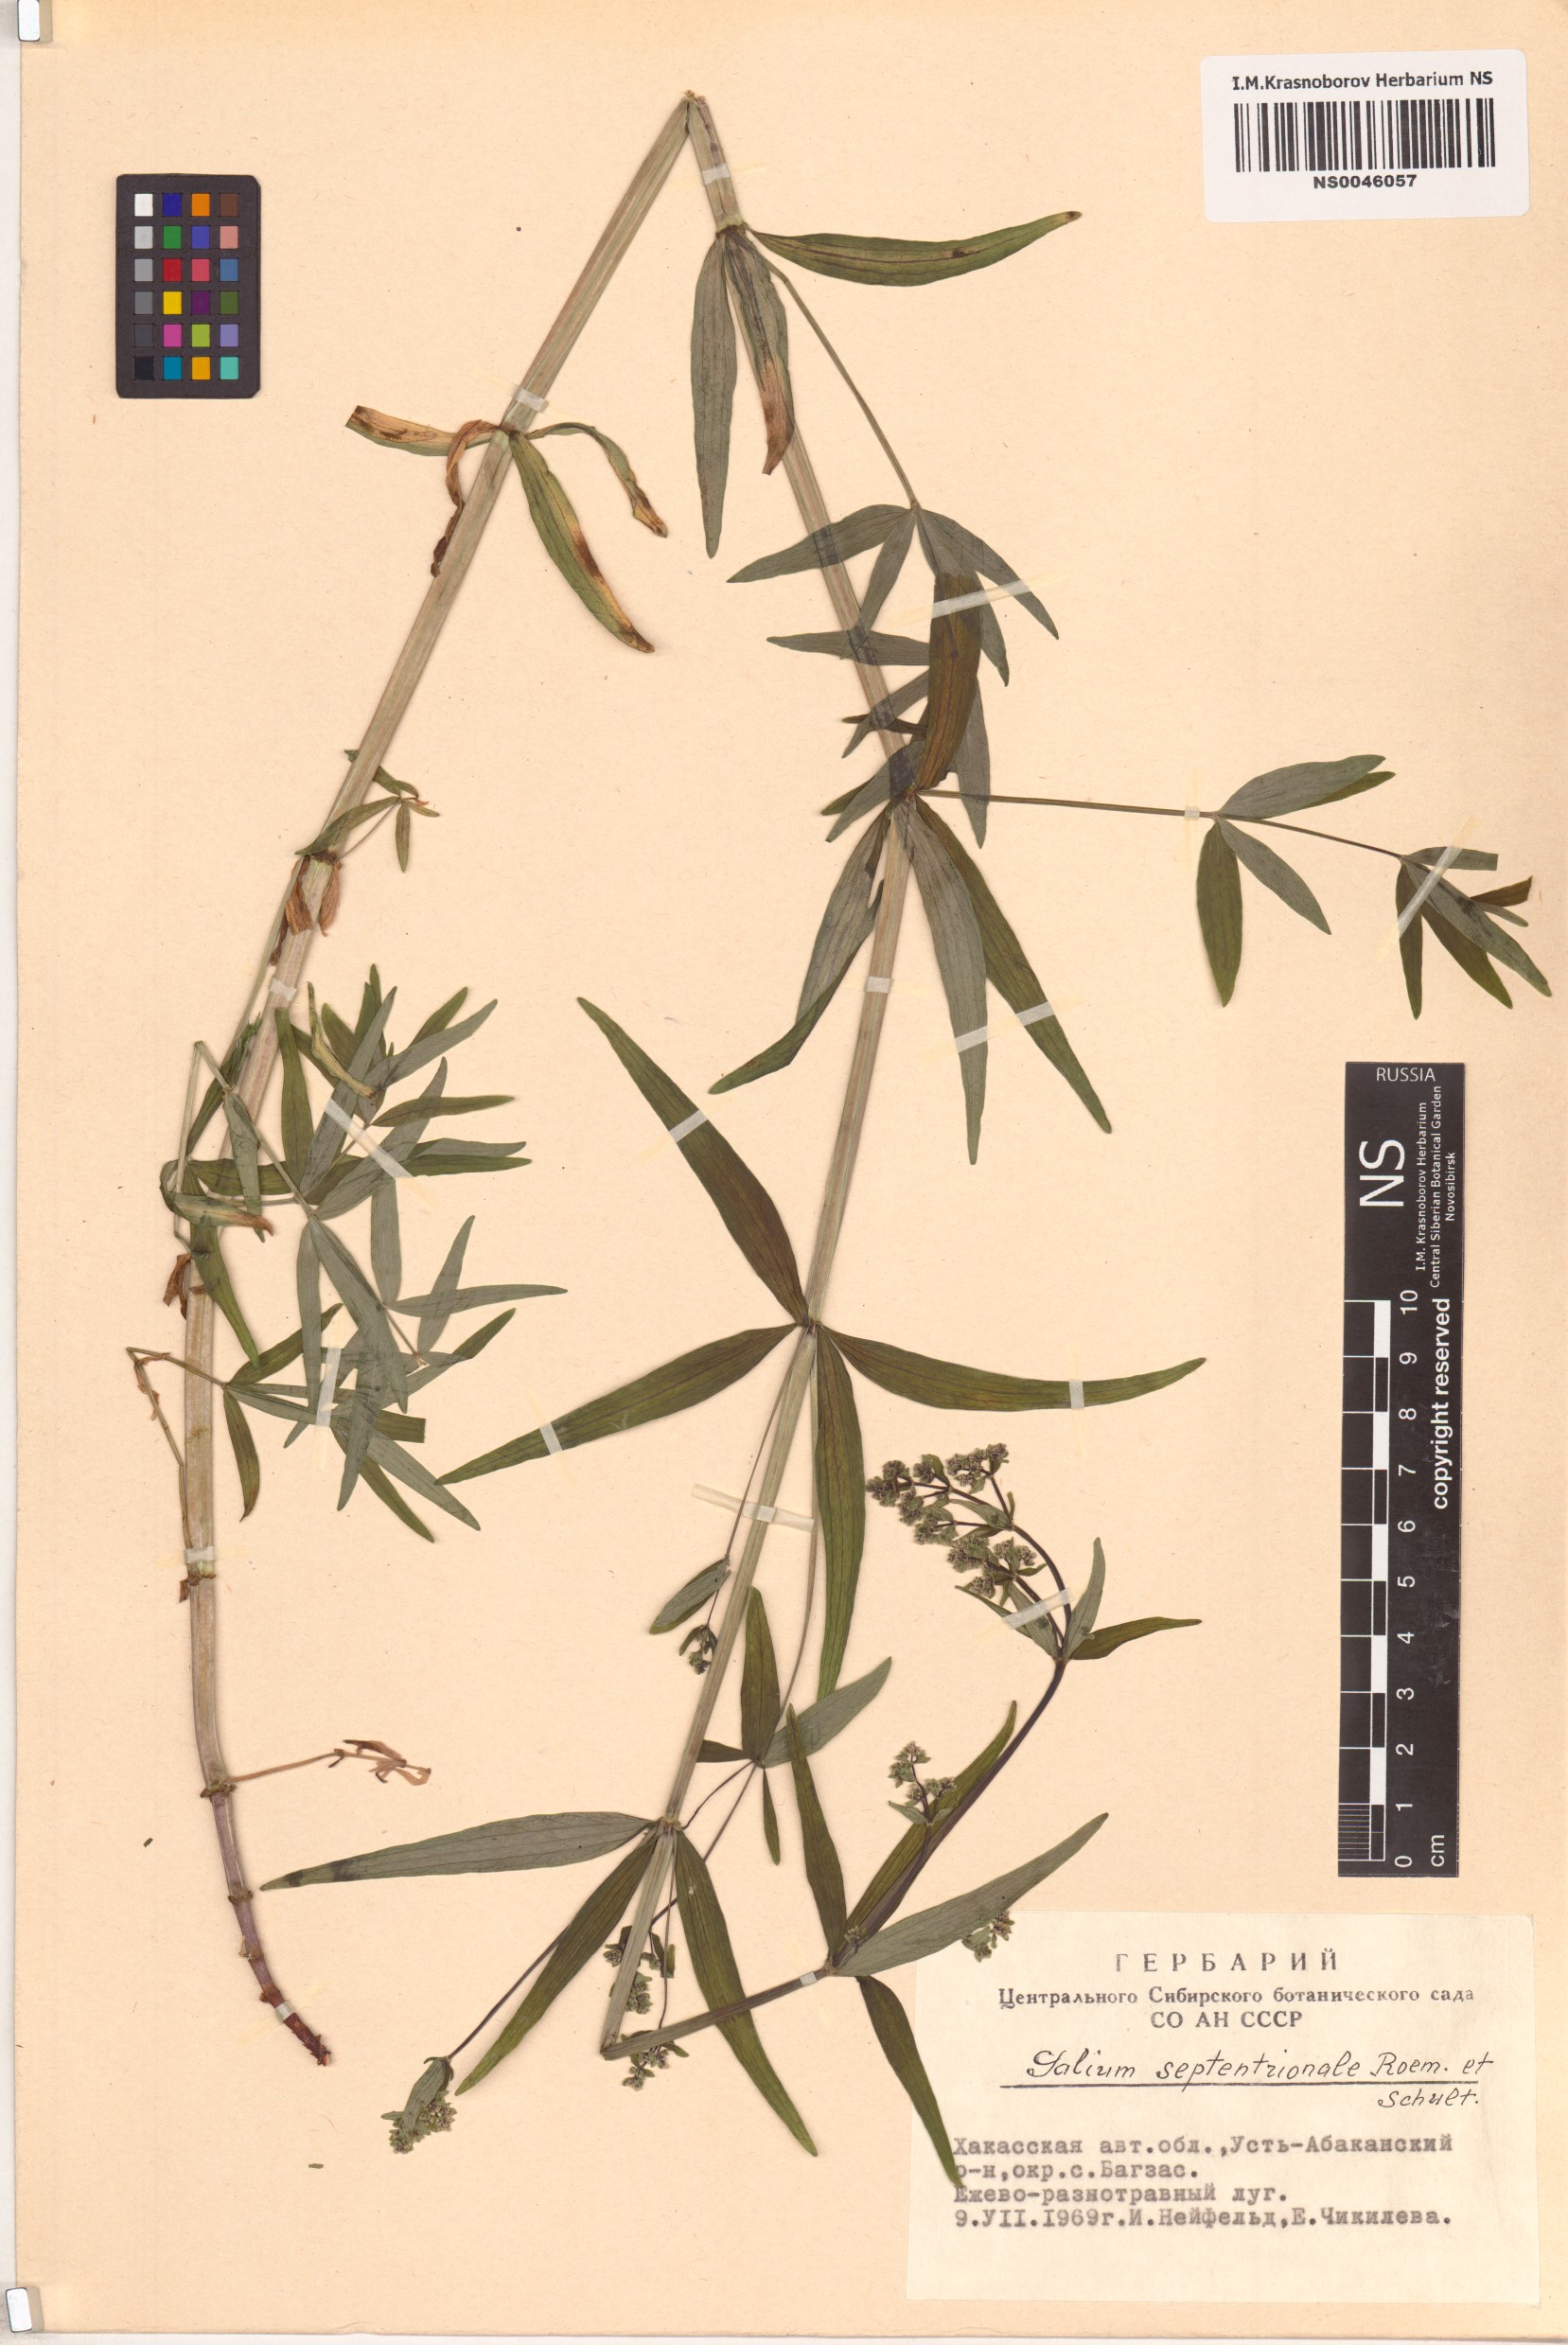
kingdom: Plantae
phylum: Tracheophyta
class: Magnoliopsida
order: Gentianales
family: Rubiaceae
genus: Galium
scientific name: Galium boreale
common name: Northern bedstraw
